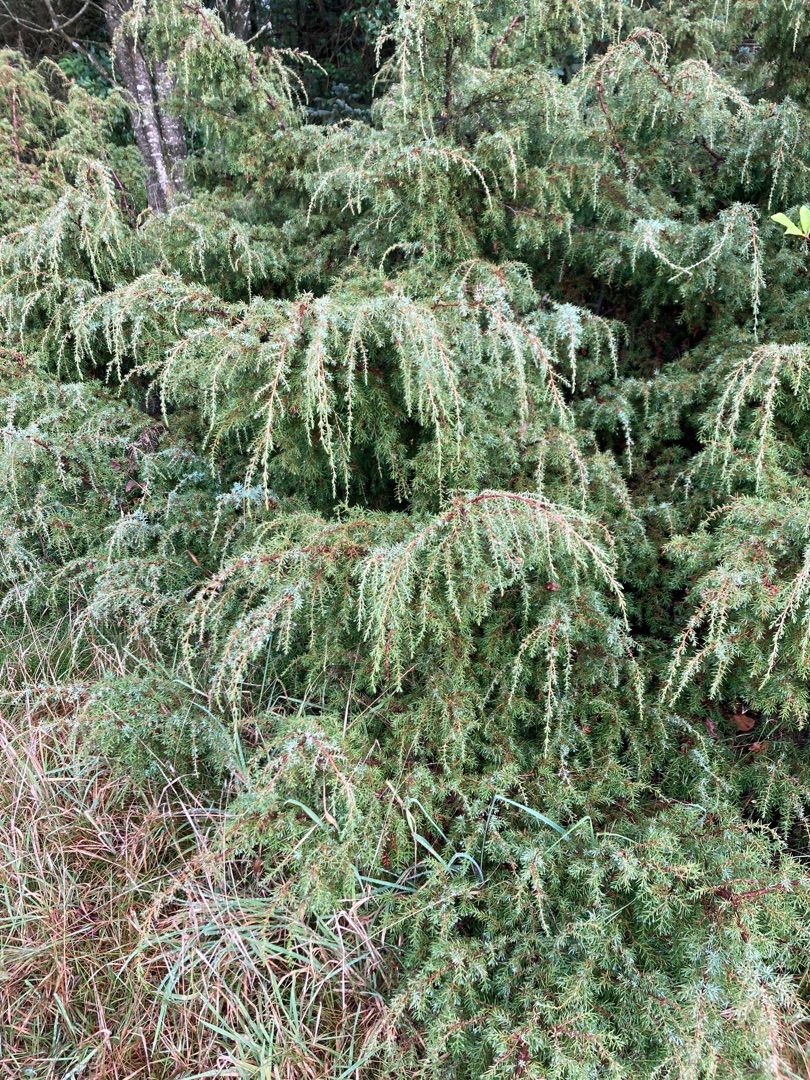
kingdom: Plantae
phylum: Tracheophyta
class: Pinopsida
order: Pinales
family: Cupressaceae
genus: Juniperus
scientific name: Juniperus communis
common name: Almindelig ene
